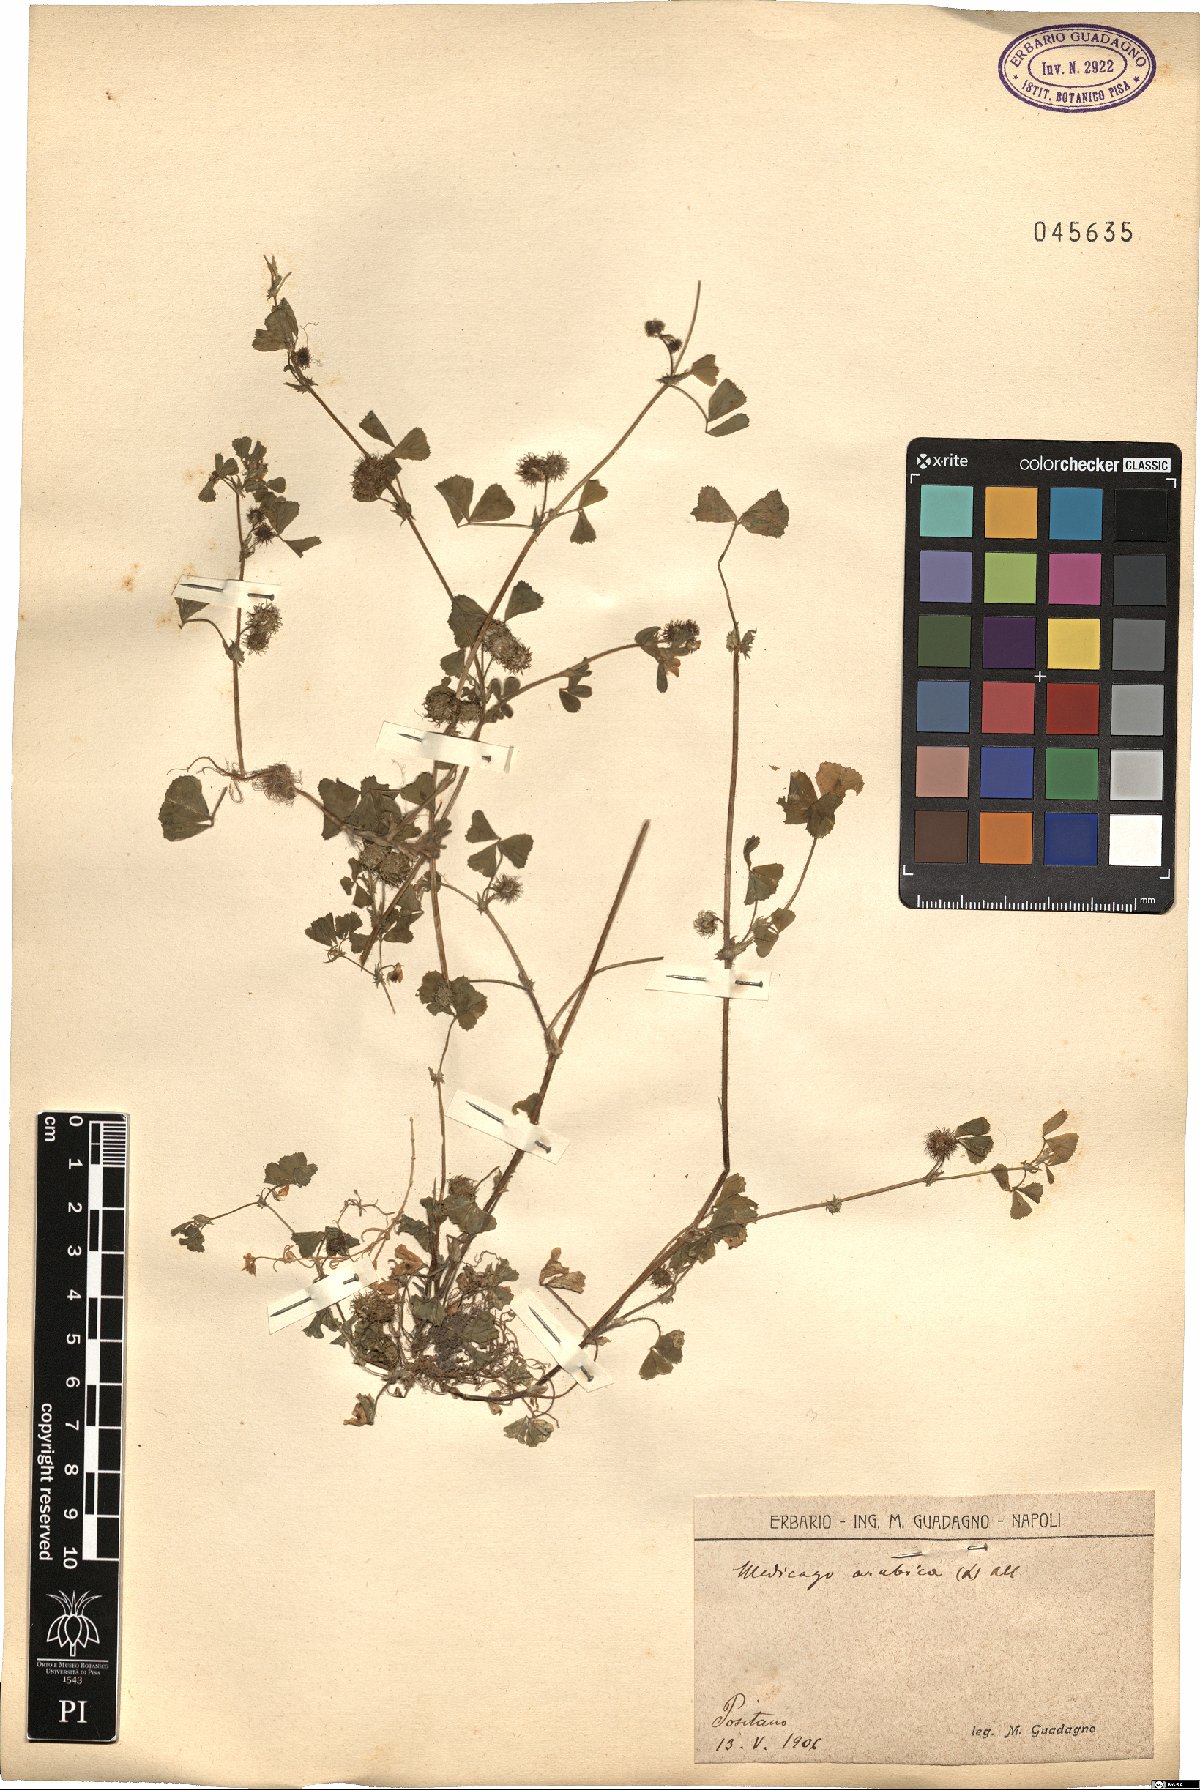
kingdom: Plantae
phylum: Tracheophyta
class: Magnoliopsida
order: Fabales
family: Fabaceae
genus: Medicago
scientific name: Medicago arabica
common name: Spotted medick
